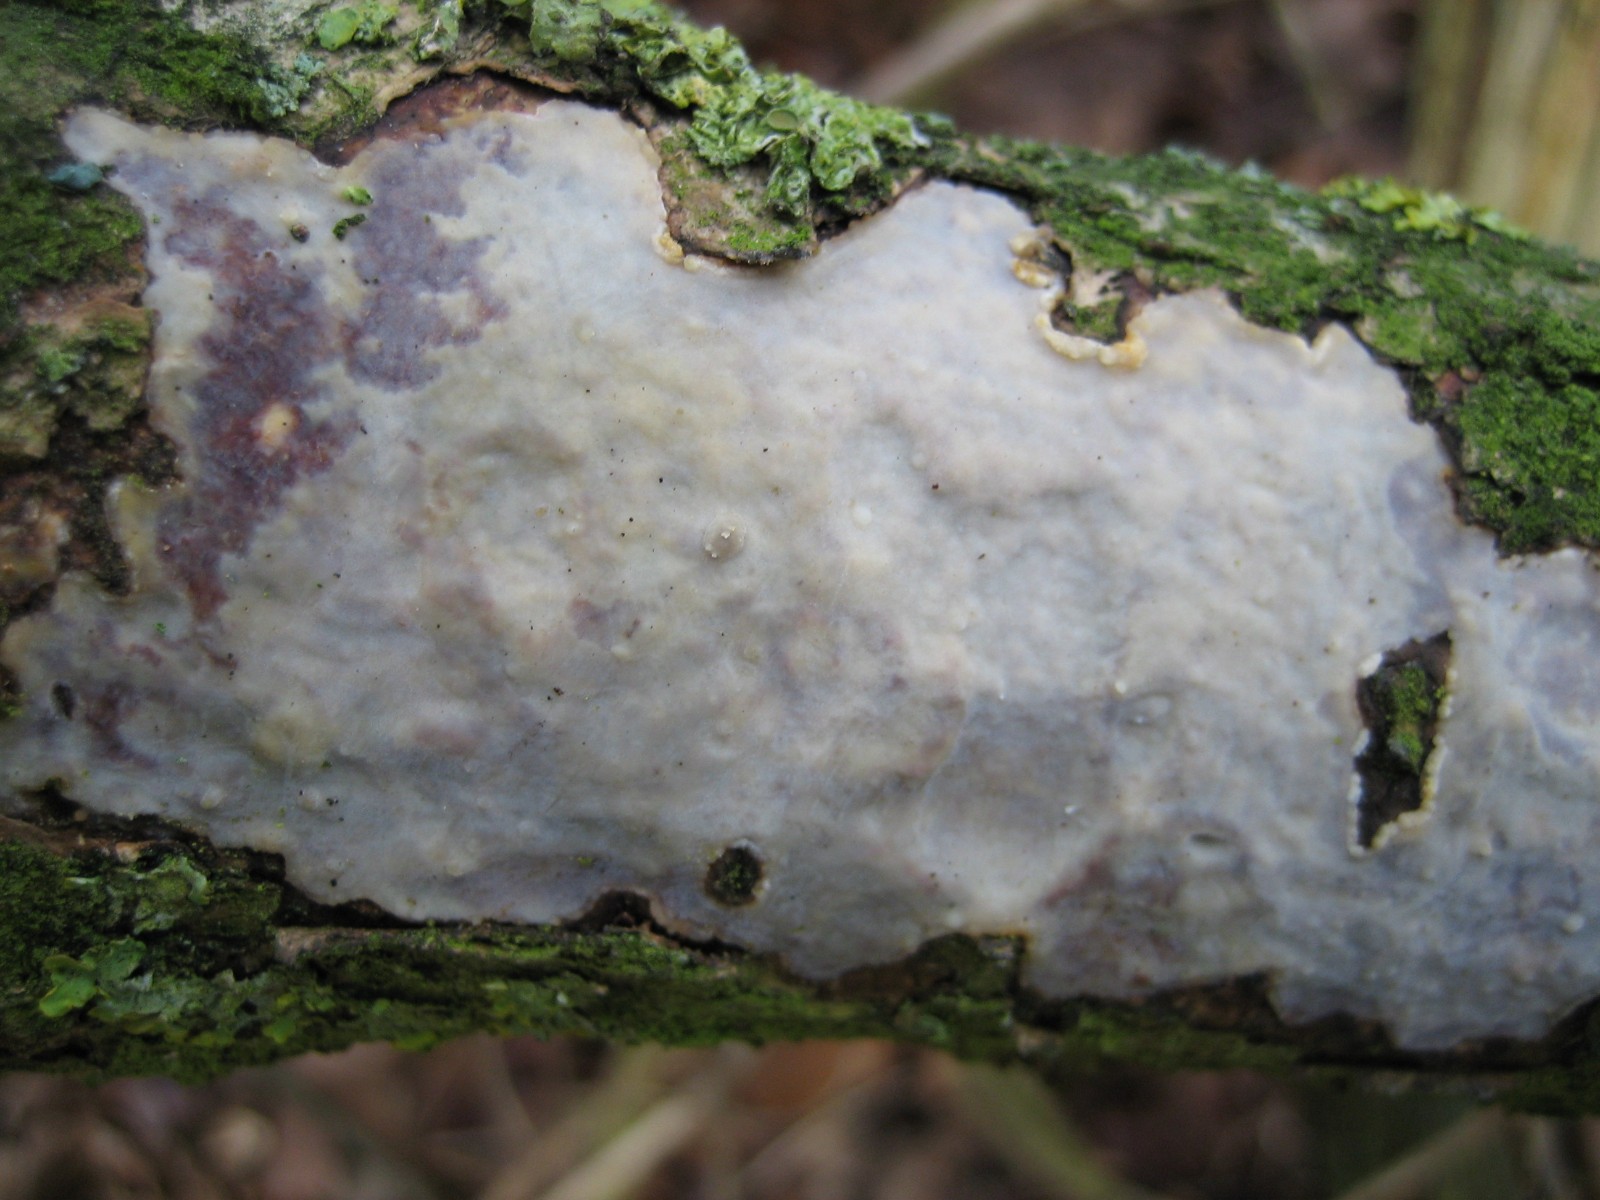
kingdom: Fungi
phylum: Basidiomycota
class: Agaricomycetes
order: Corticiales
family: Vuilleminiaceae
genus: Vuilleminia
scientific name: Vuilleminia comedens
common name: almindelig barksprænger
